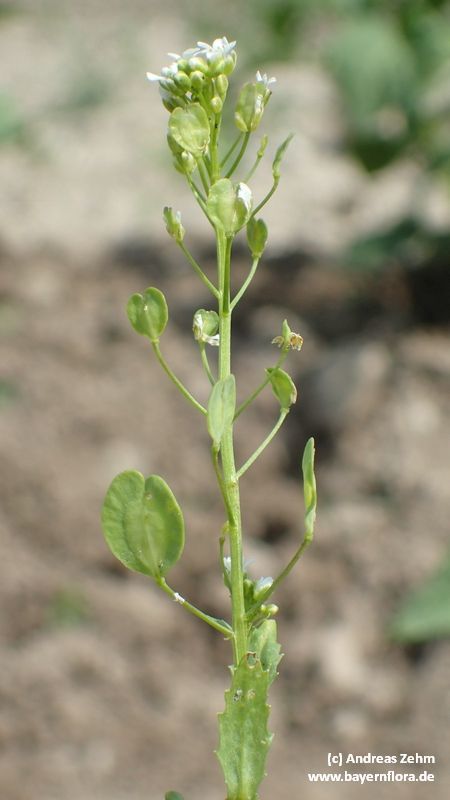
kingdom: Plantae
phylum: Tracheophyta
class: Magnoliopsida
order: Brassicales
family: Brassicaceae
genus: Thlaspi
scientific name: Thlaspi arvense
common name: Field pennycress
